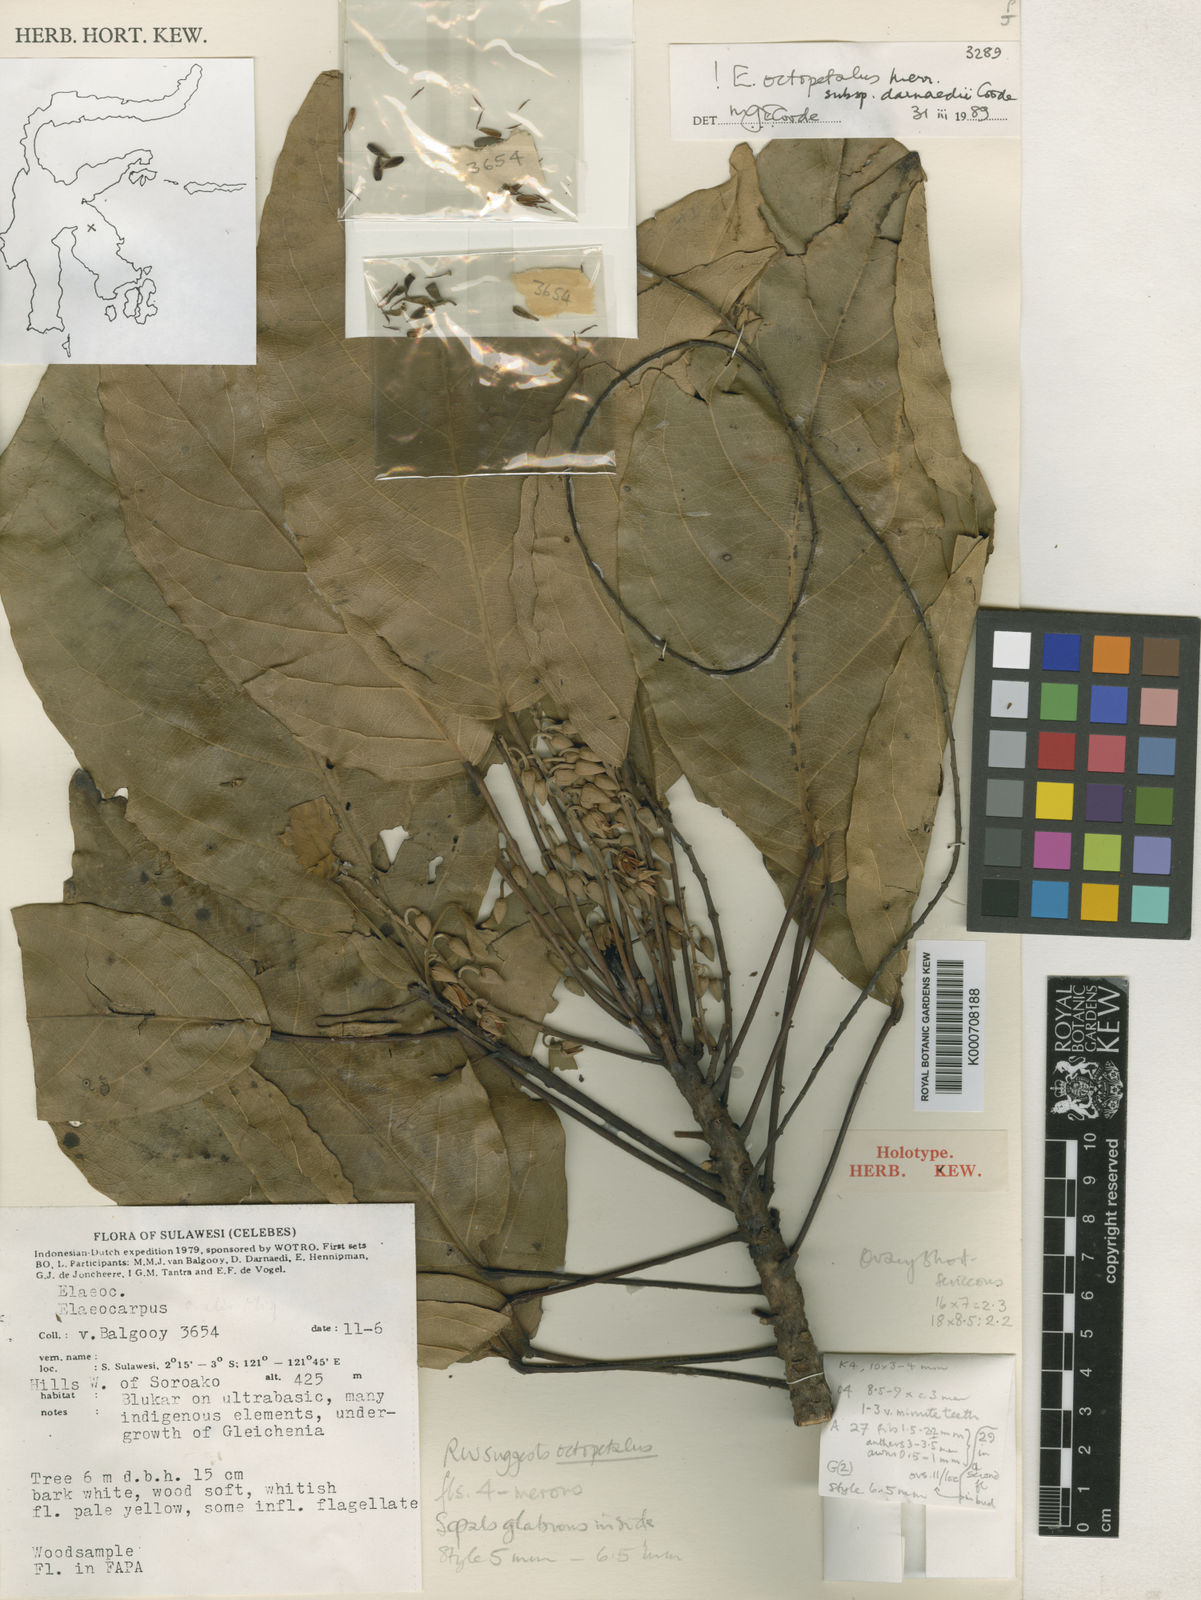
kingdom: Plantae
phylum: Tracheophyta
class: Magnoliopsida
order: Oxalidales
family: Elaeocarpaceae
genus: Elaeocarpus
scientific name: Elaeocarpus octopetalus
